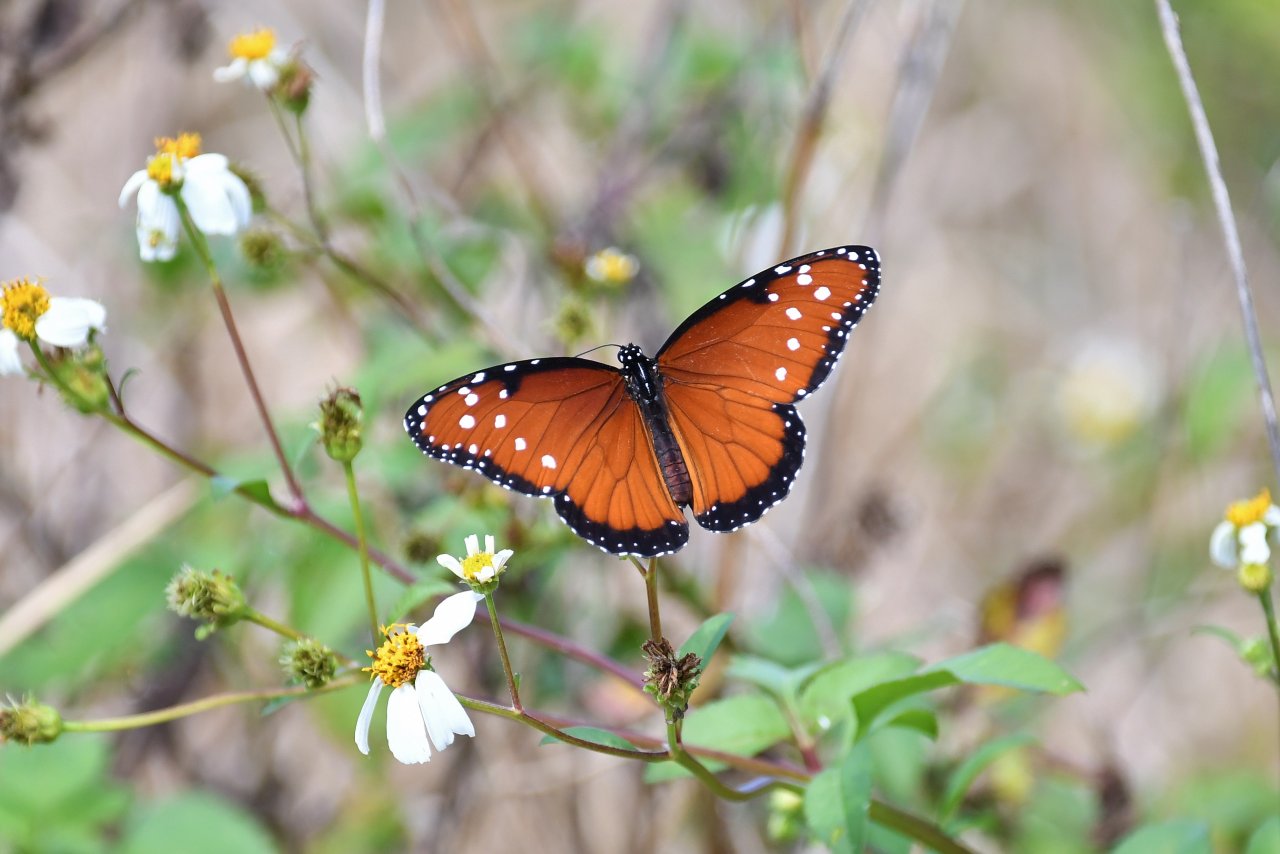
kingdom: Animalia
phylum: Arthropoda
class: Insecta
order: Lepidoptera
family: Nymphalidae
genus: Danaus
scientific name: Danaus gilippus
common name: Queen
